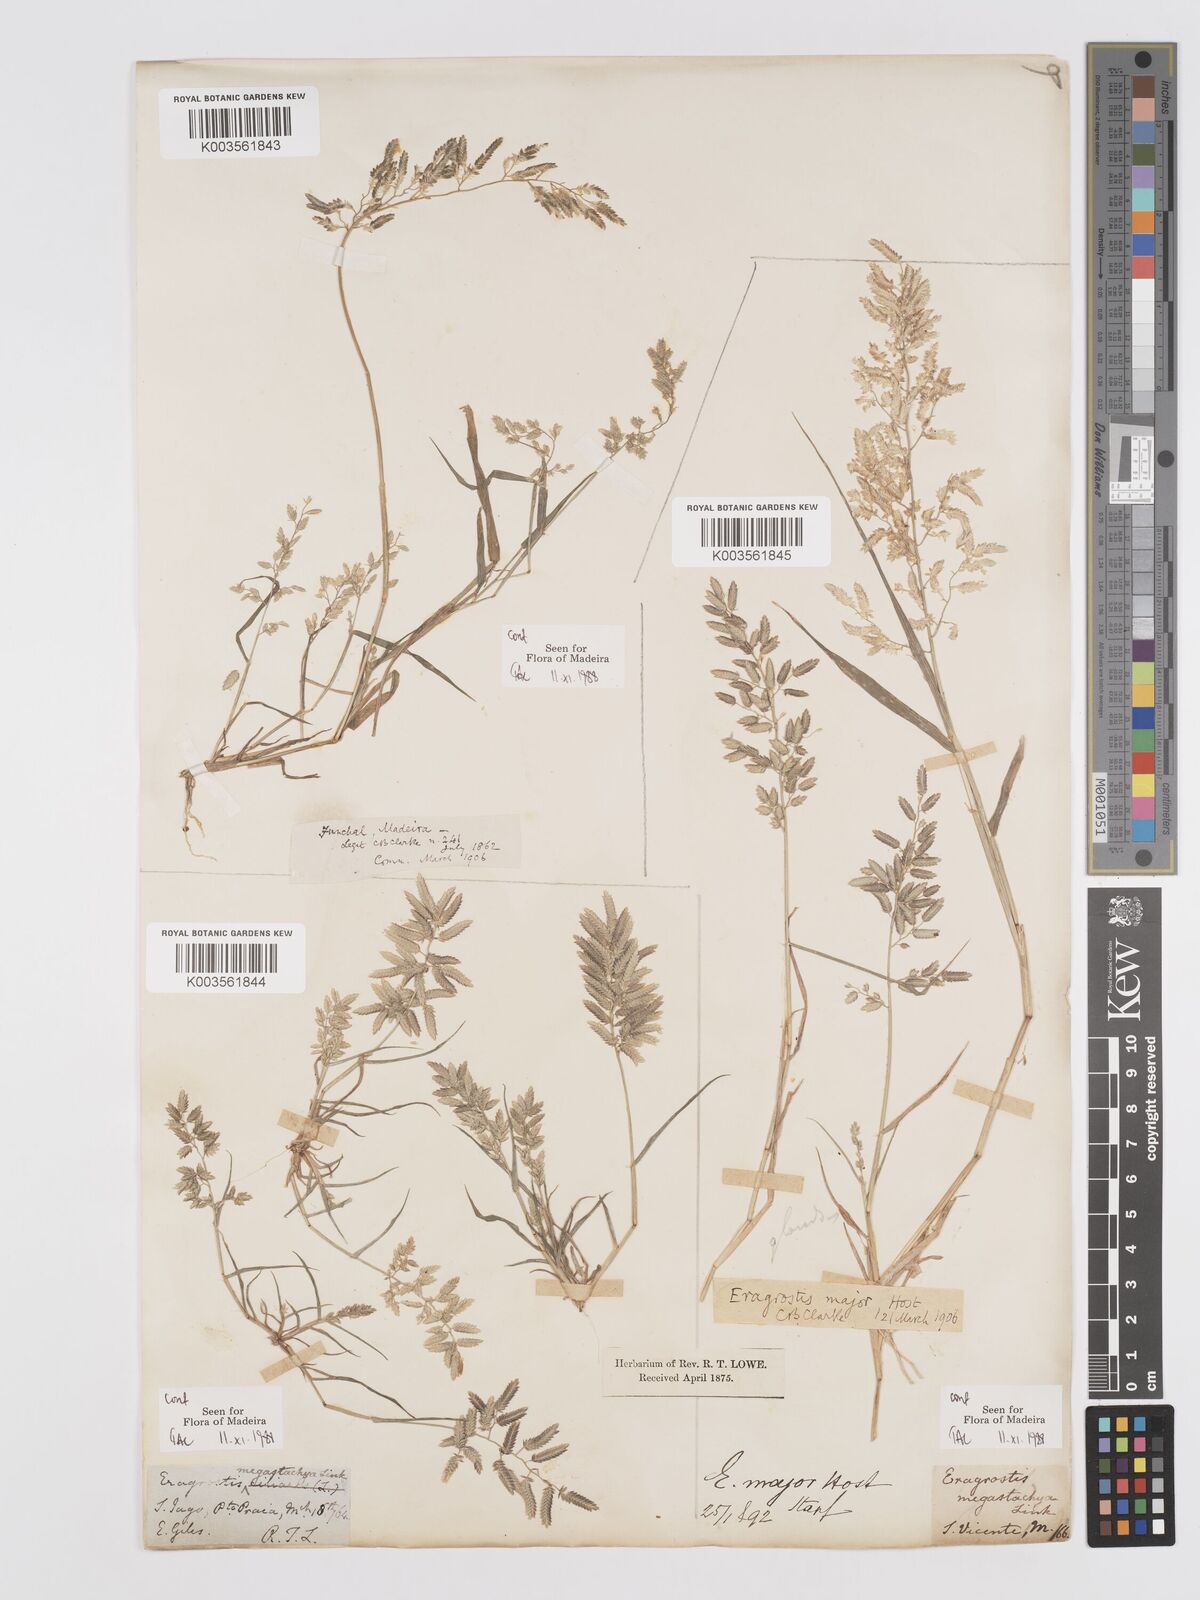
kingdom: Plantae
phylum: Tracheophyta
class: Liliopsida
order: Poales
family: Poaceae
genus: Eragrostis
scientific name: Eragrostis cilianensis
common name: Stinkgrass
